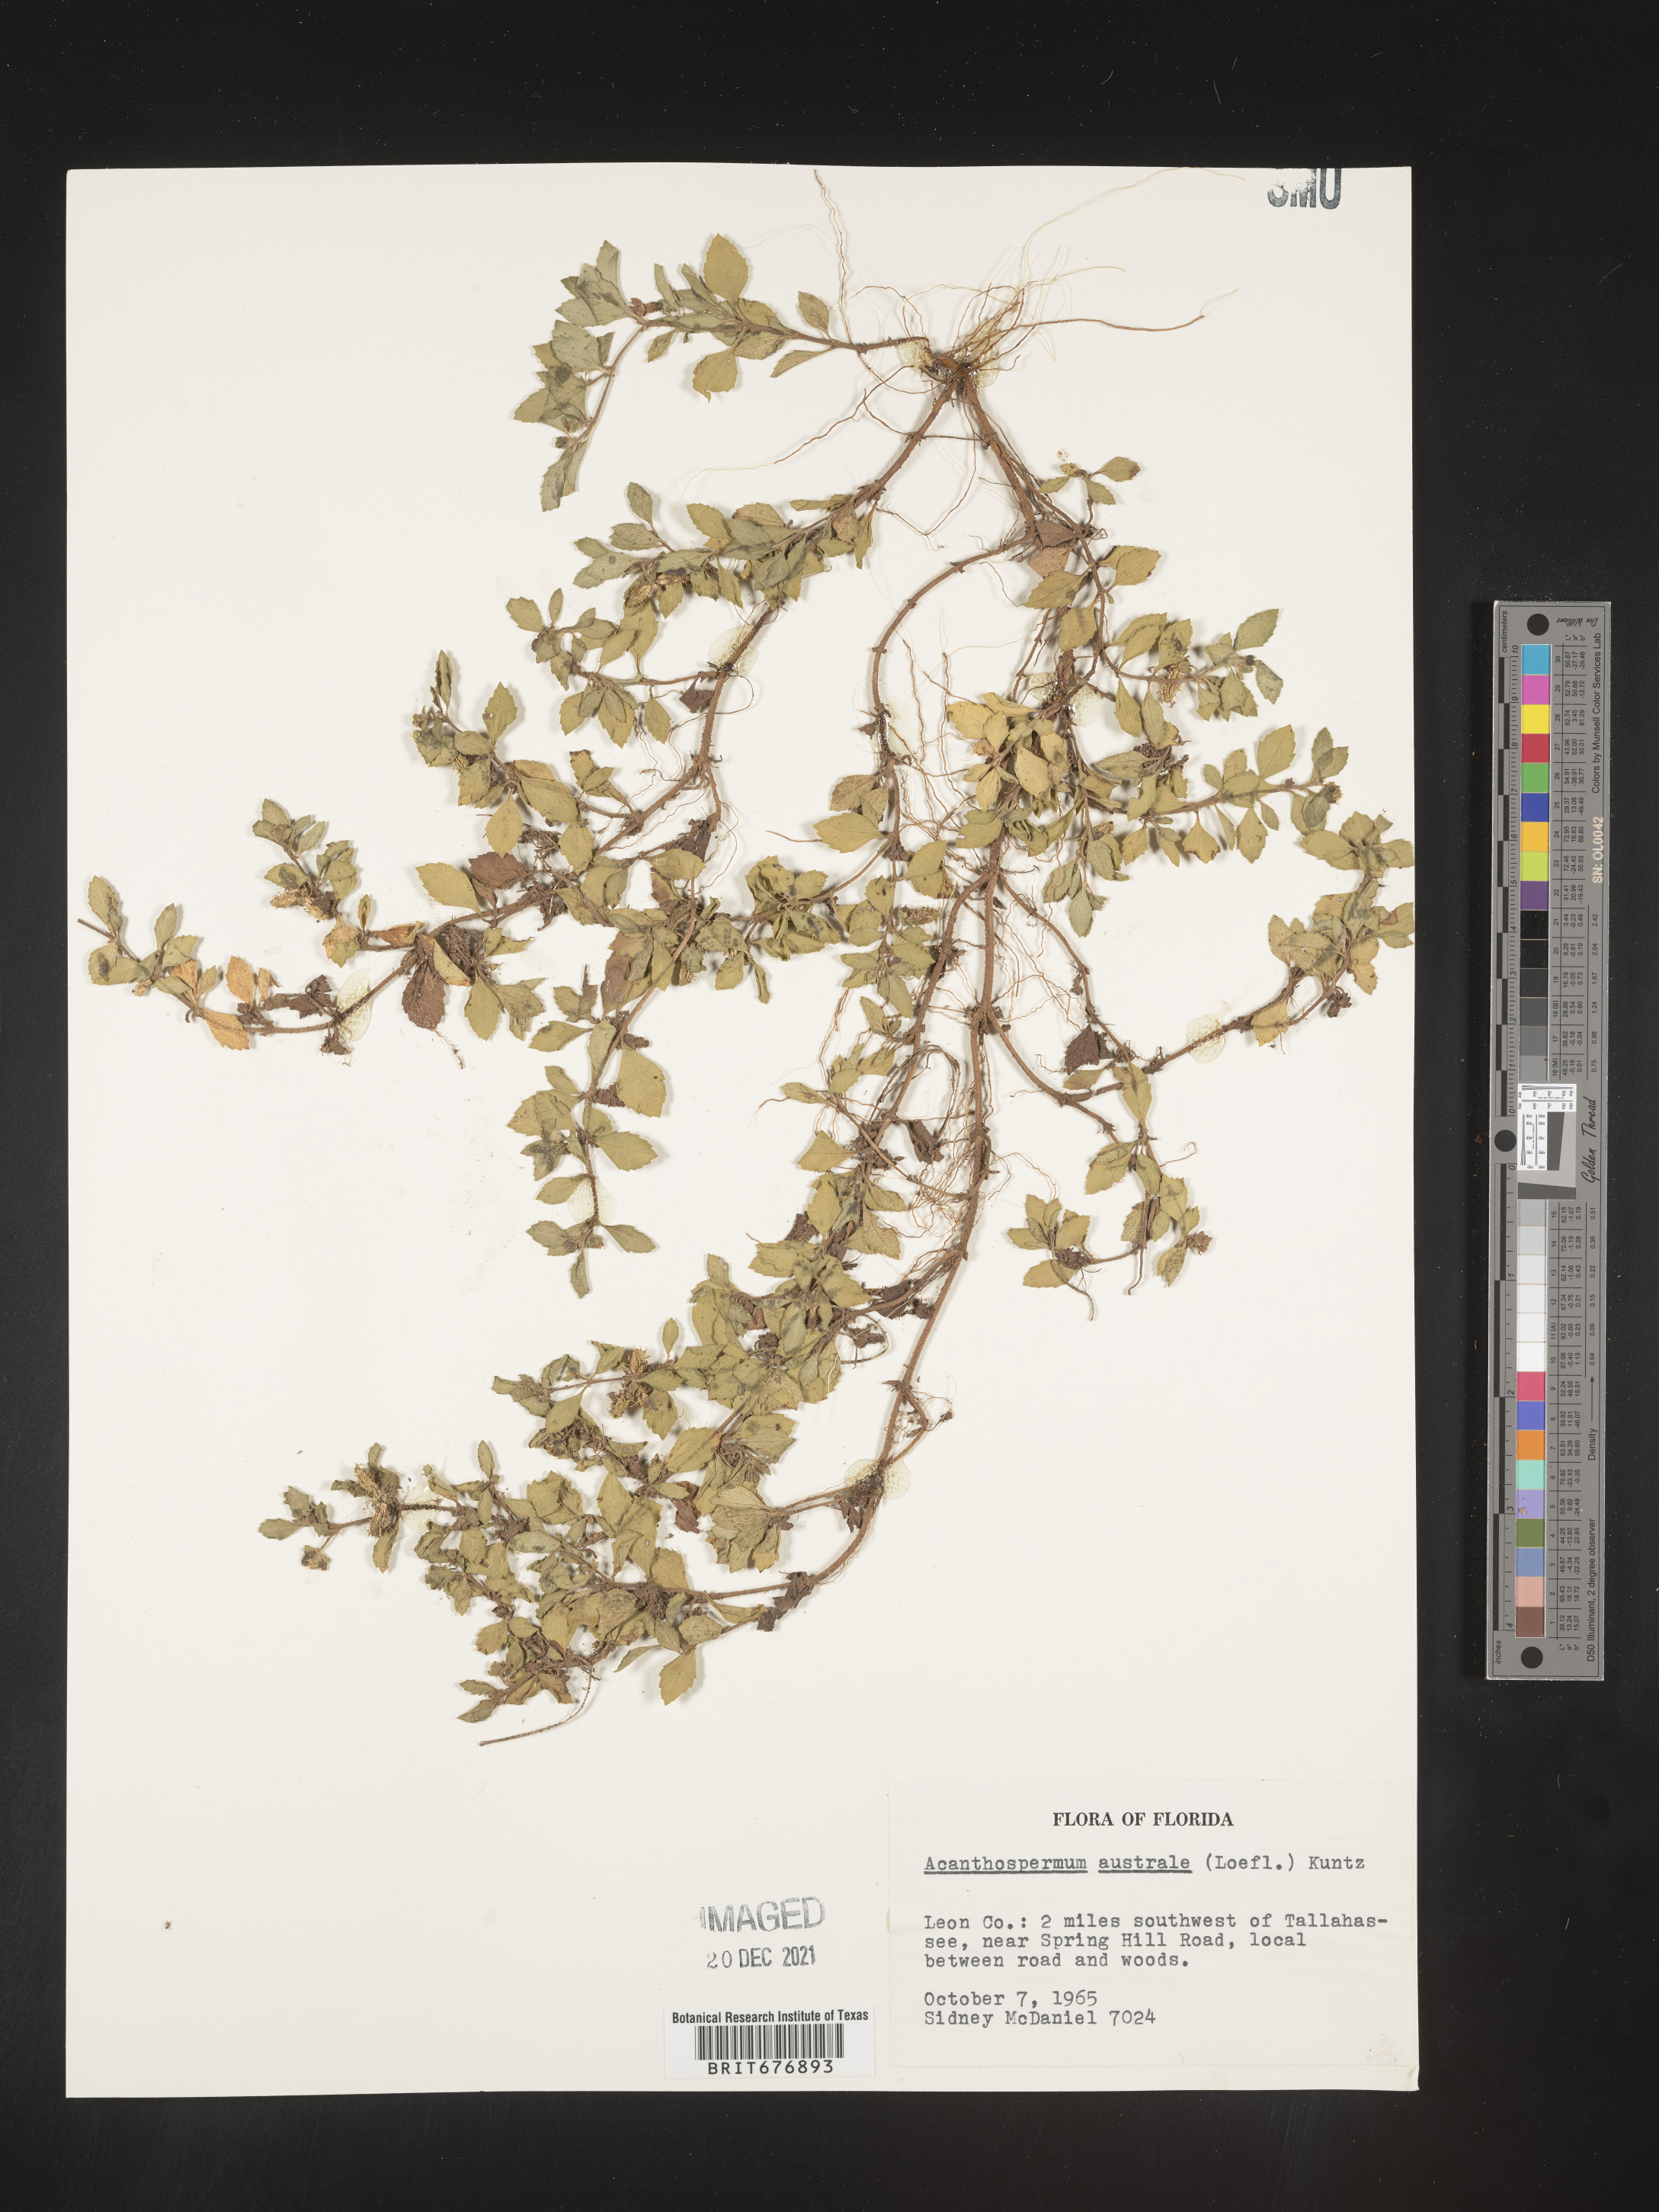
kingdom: Plantae
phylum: Tracheophyta
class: Magnoliopsida
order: Asterales
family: Asteraceae
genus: Acanthospermum
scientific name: Acanthospermum australe
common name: Paraguayan starbur
